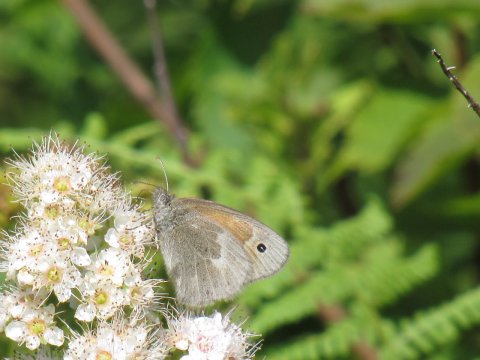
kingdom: Animalia
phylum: Arthropoda
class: Insecta
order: Lepidoptera
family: Nymphalidae
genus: Coenonympha
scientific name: Coenonympha tullia
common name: Large Heath
